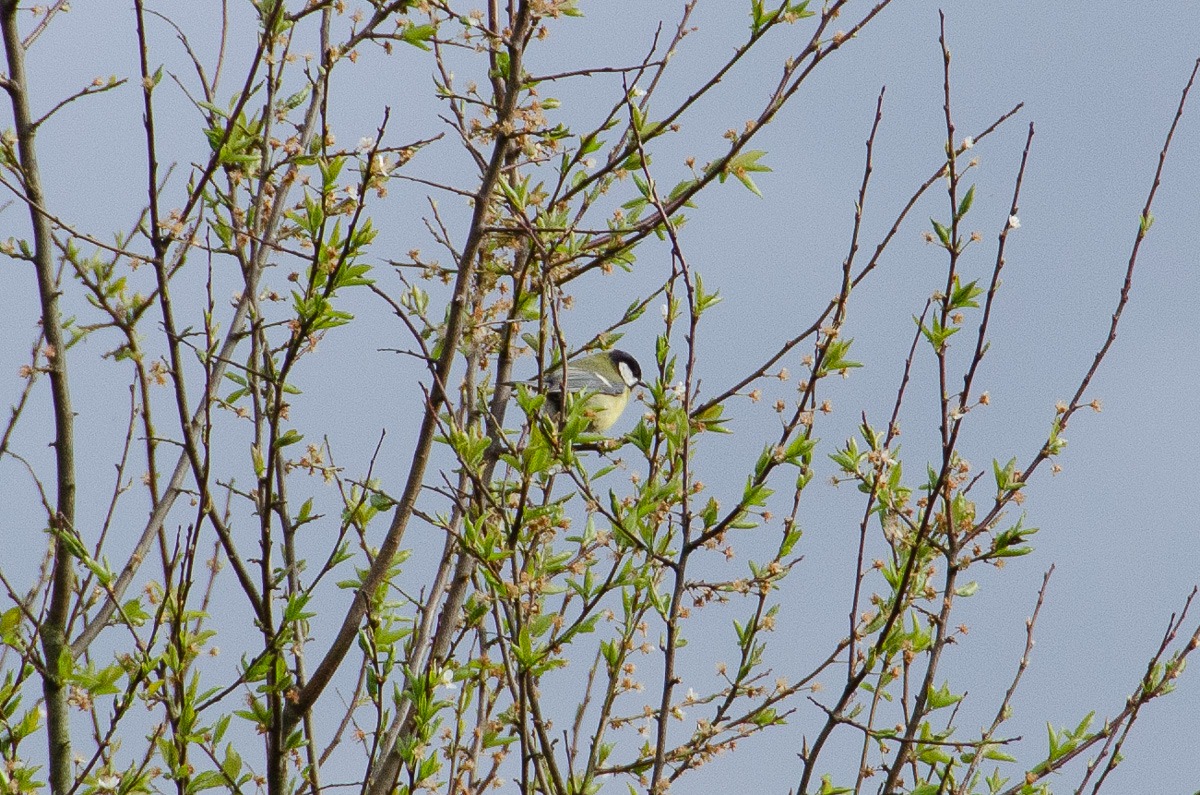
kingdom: Animalia
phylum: Chordata
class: Aves
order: Passeriformes
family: Paridae
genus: Parus
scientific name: Parus major
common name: Musvit
